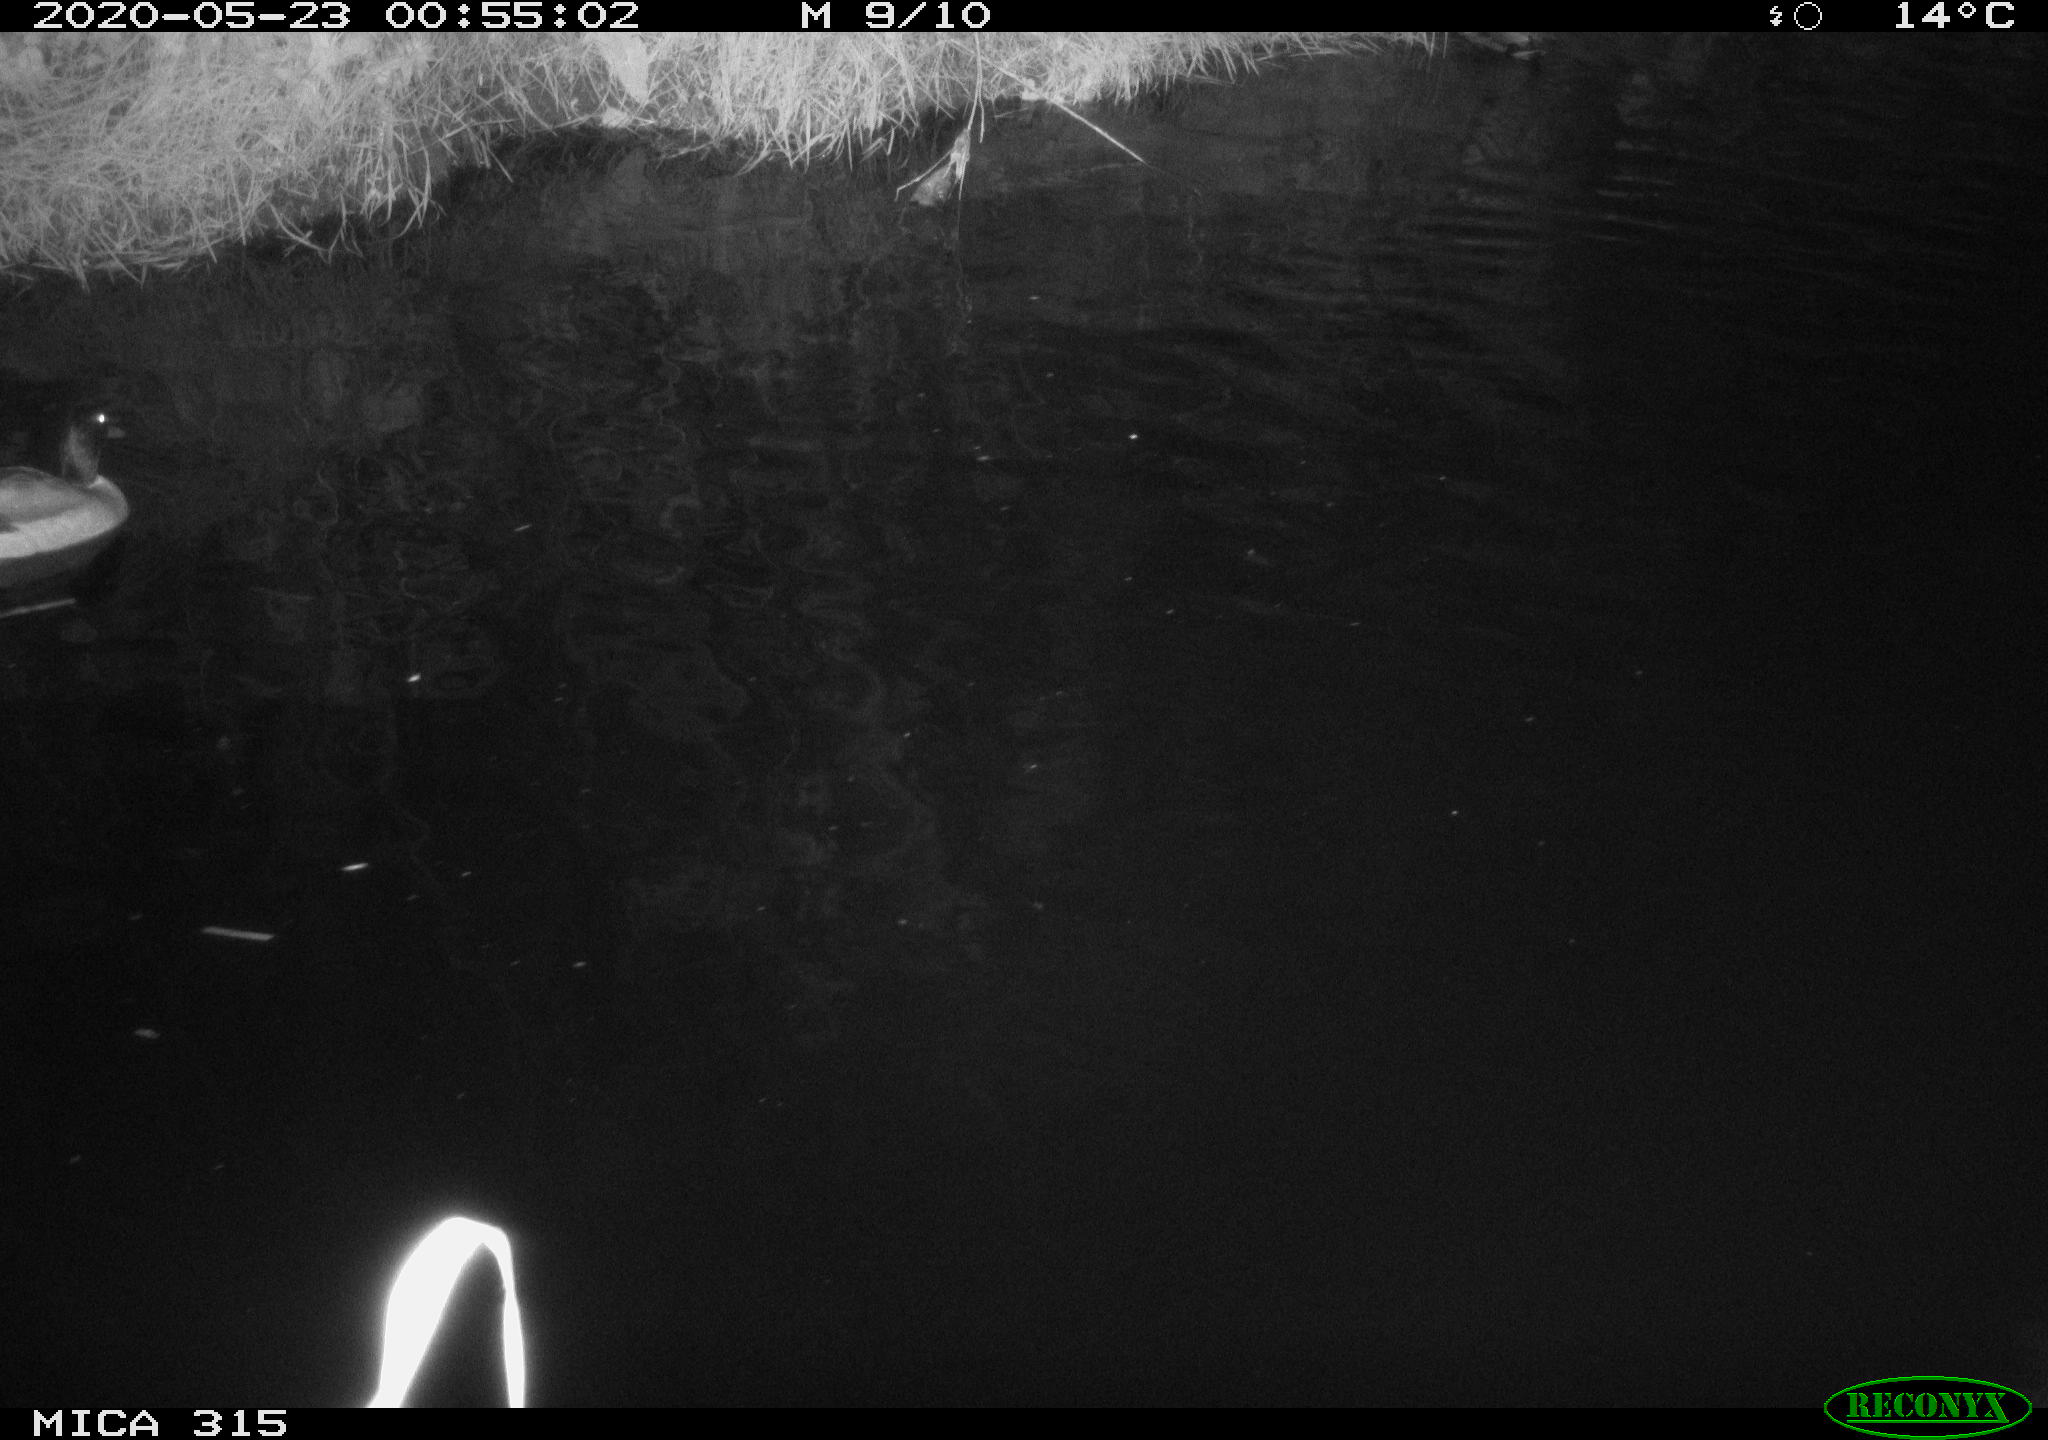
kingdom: Animalia
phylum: Chordata
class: Aves
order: Anseriformes
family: Anatidae
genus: Anas
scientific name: Anas platyrhynchos
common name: Mallard
